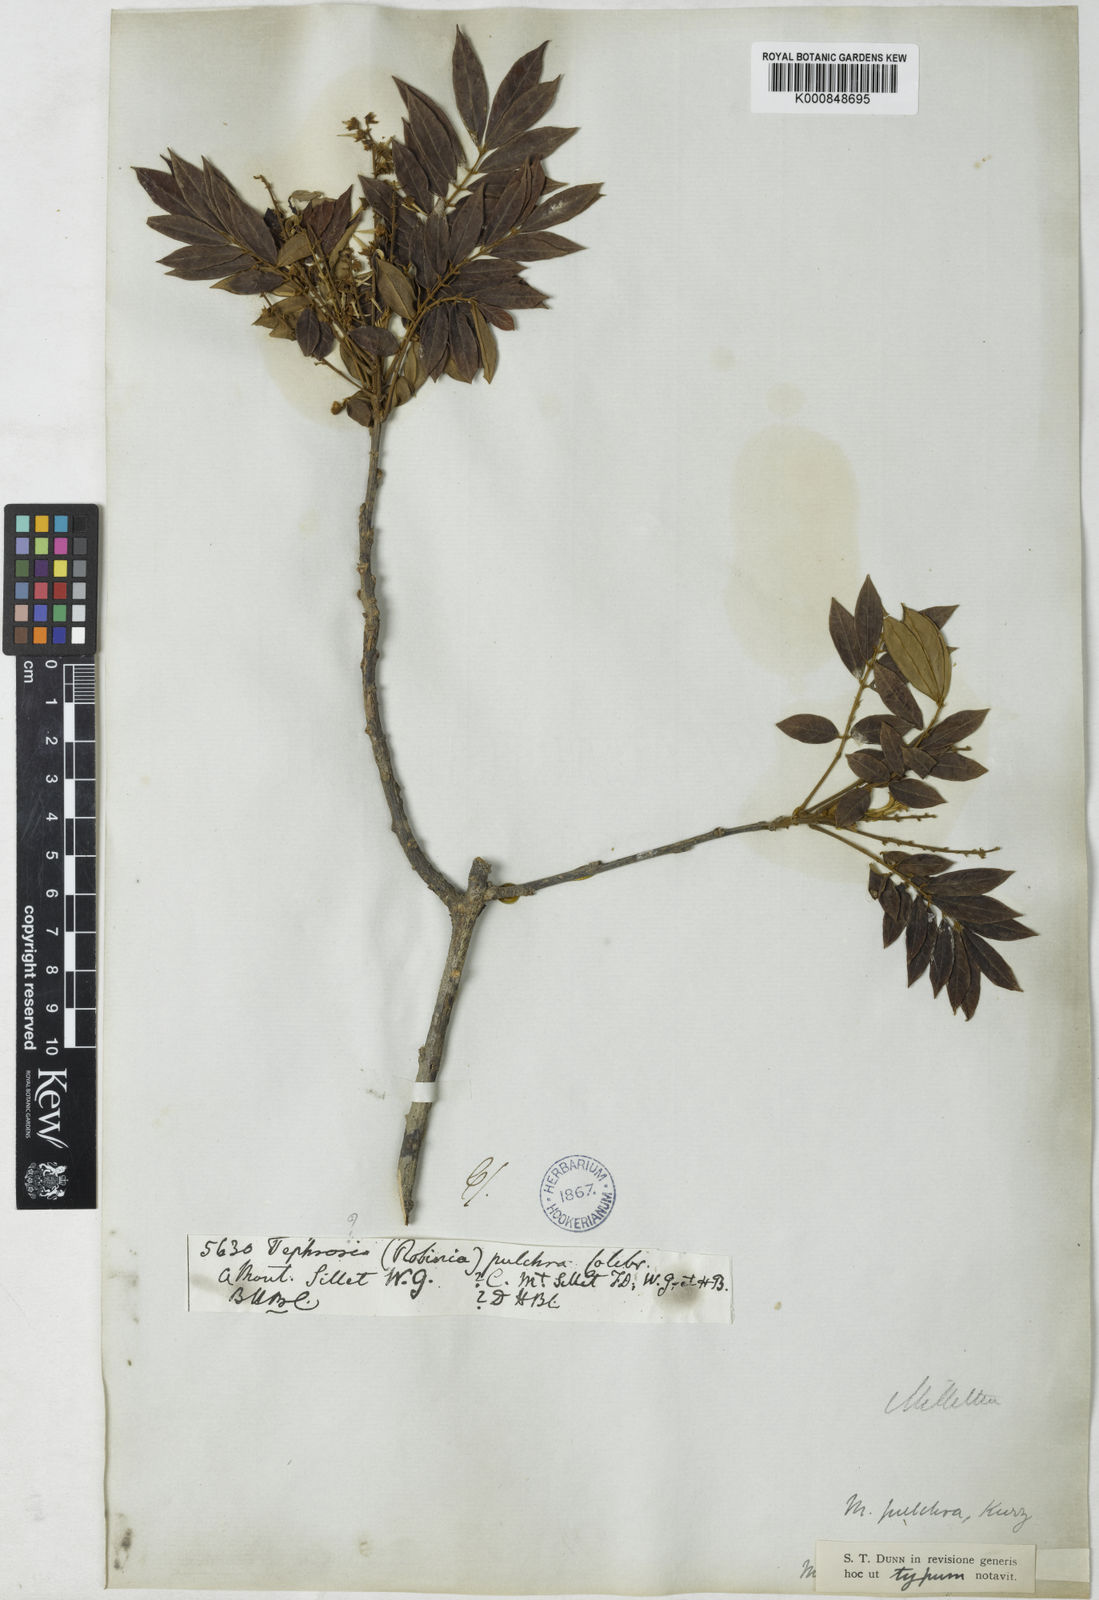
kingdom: Plantae
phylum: Tracheophyta
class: Magnoliopsida
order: Fabales
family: Fabaceae
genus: Millettia
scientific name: Millettia pulchra
